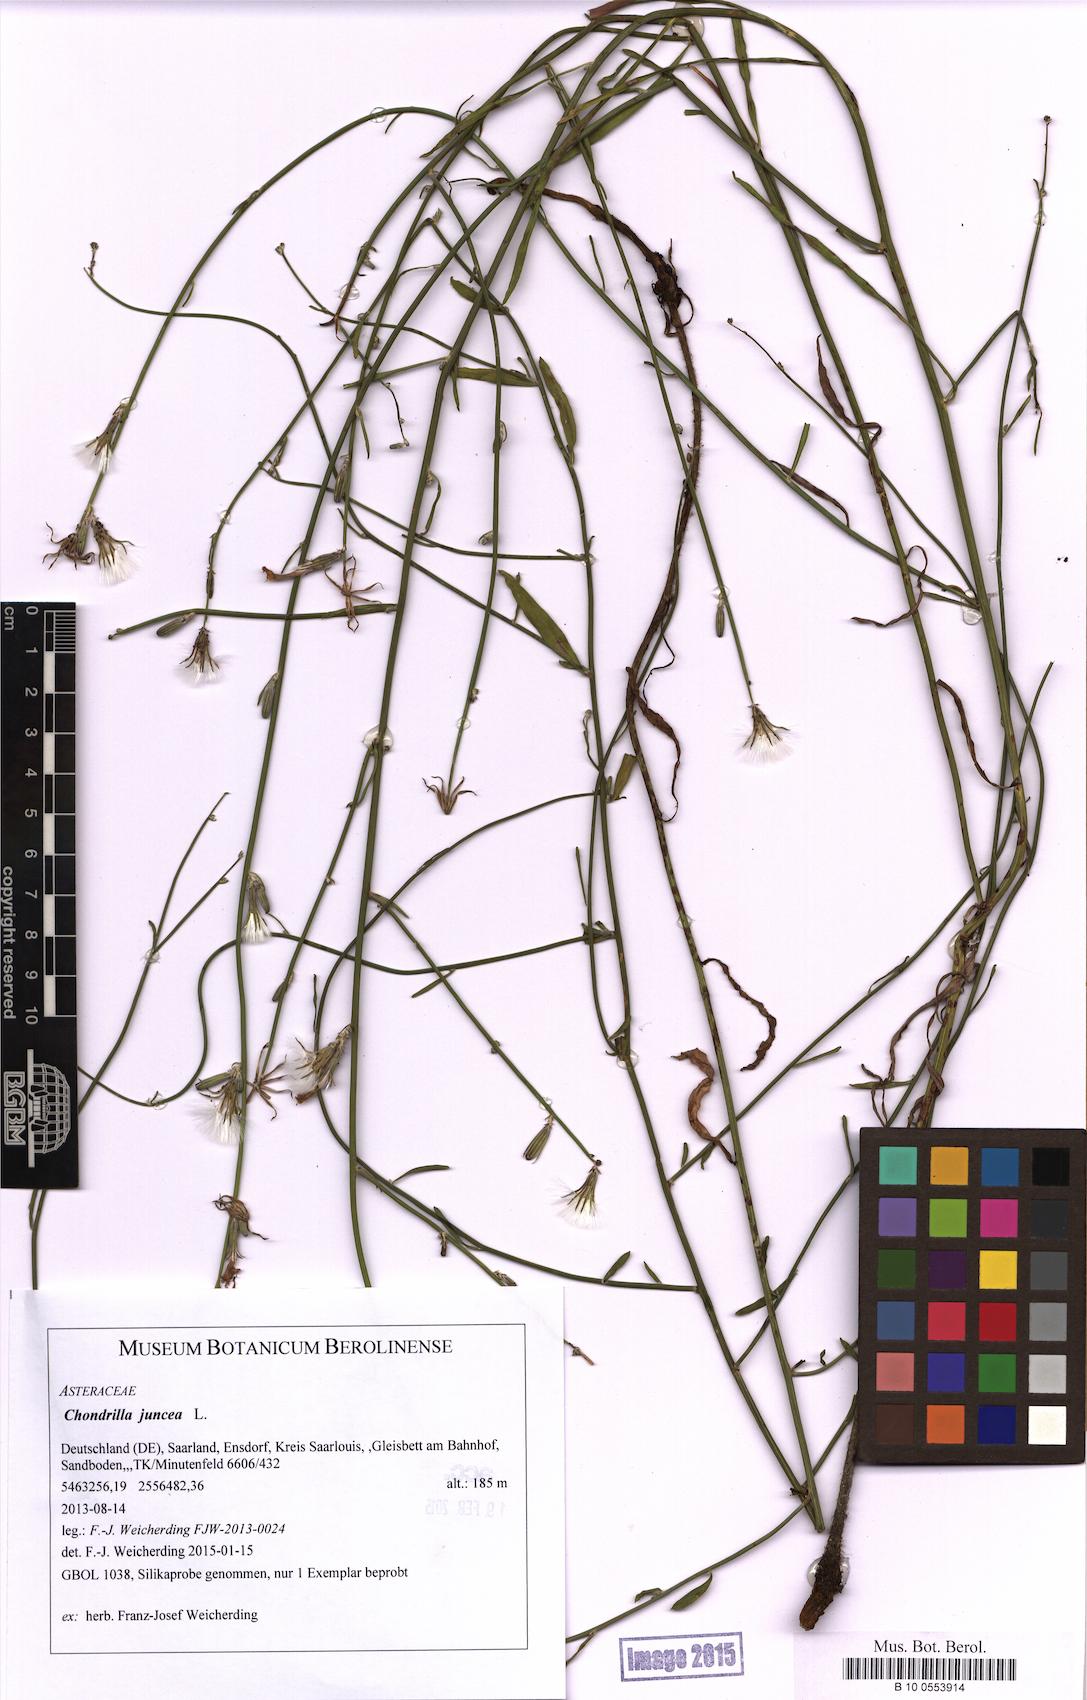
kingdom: Plantae
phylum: Tracheophyta
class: Magnoliopsida
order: Asterales
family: Asteraceae
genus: Chondrilla
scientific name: Chondrilla juncea
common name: Skeleton weed
